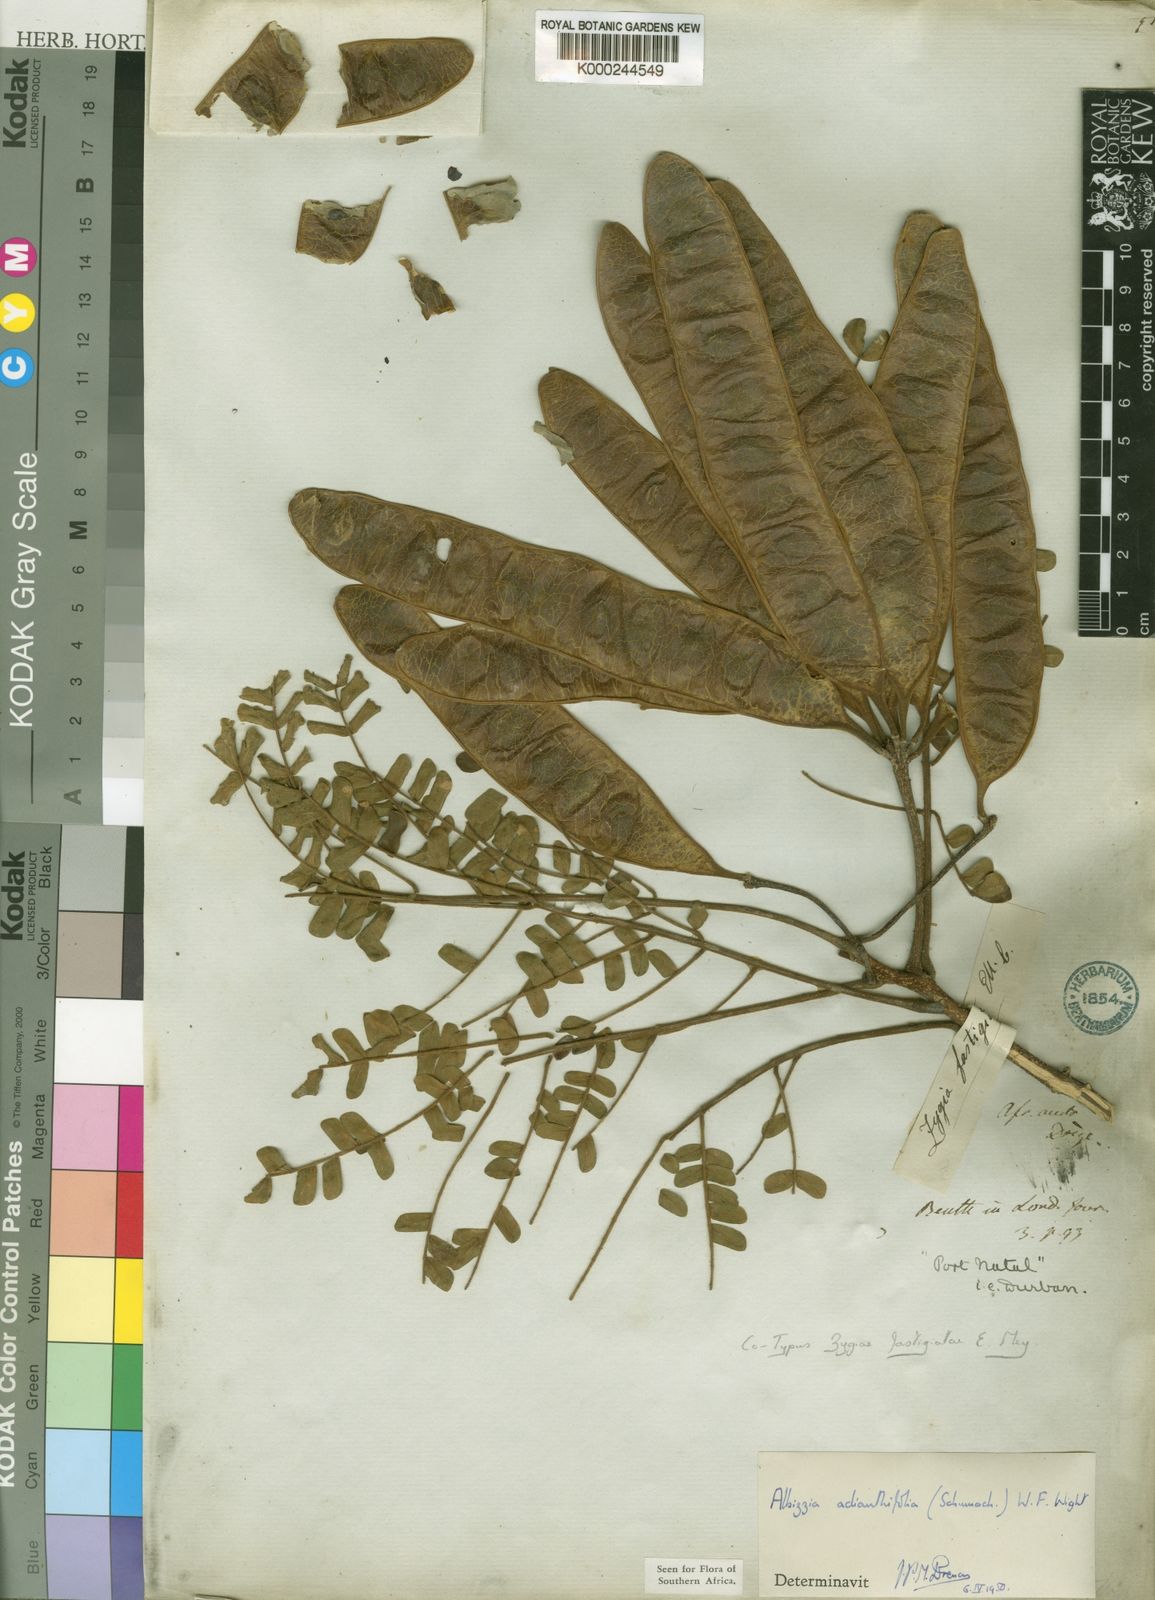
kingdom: Plantae
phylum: Tracheophyta
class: Magnoliopsida
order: Fabales
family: Fabaceae
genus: Albizia
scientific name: Albizia adianthifolia
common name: West african albizia
